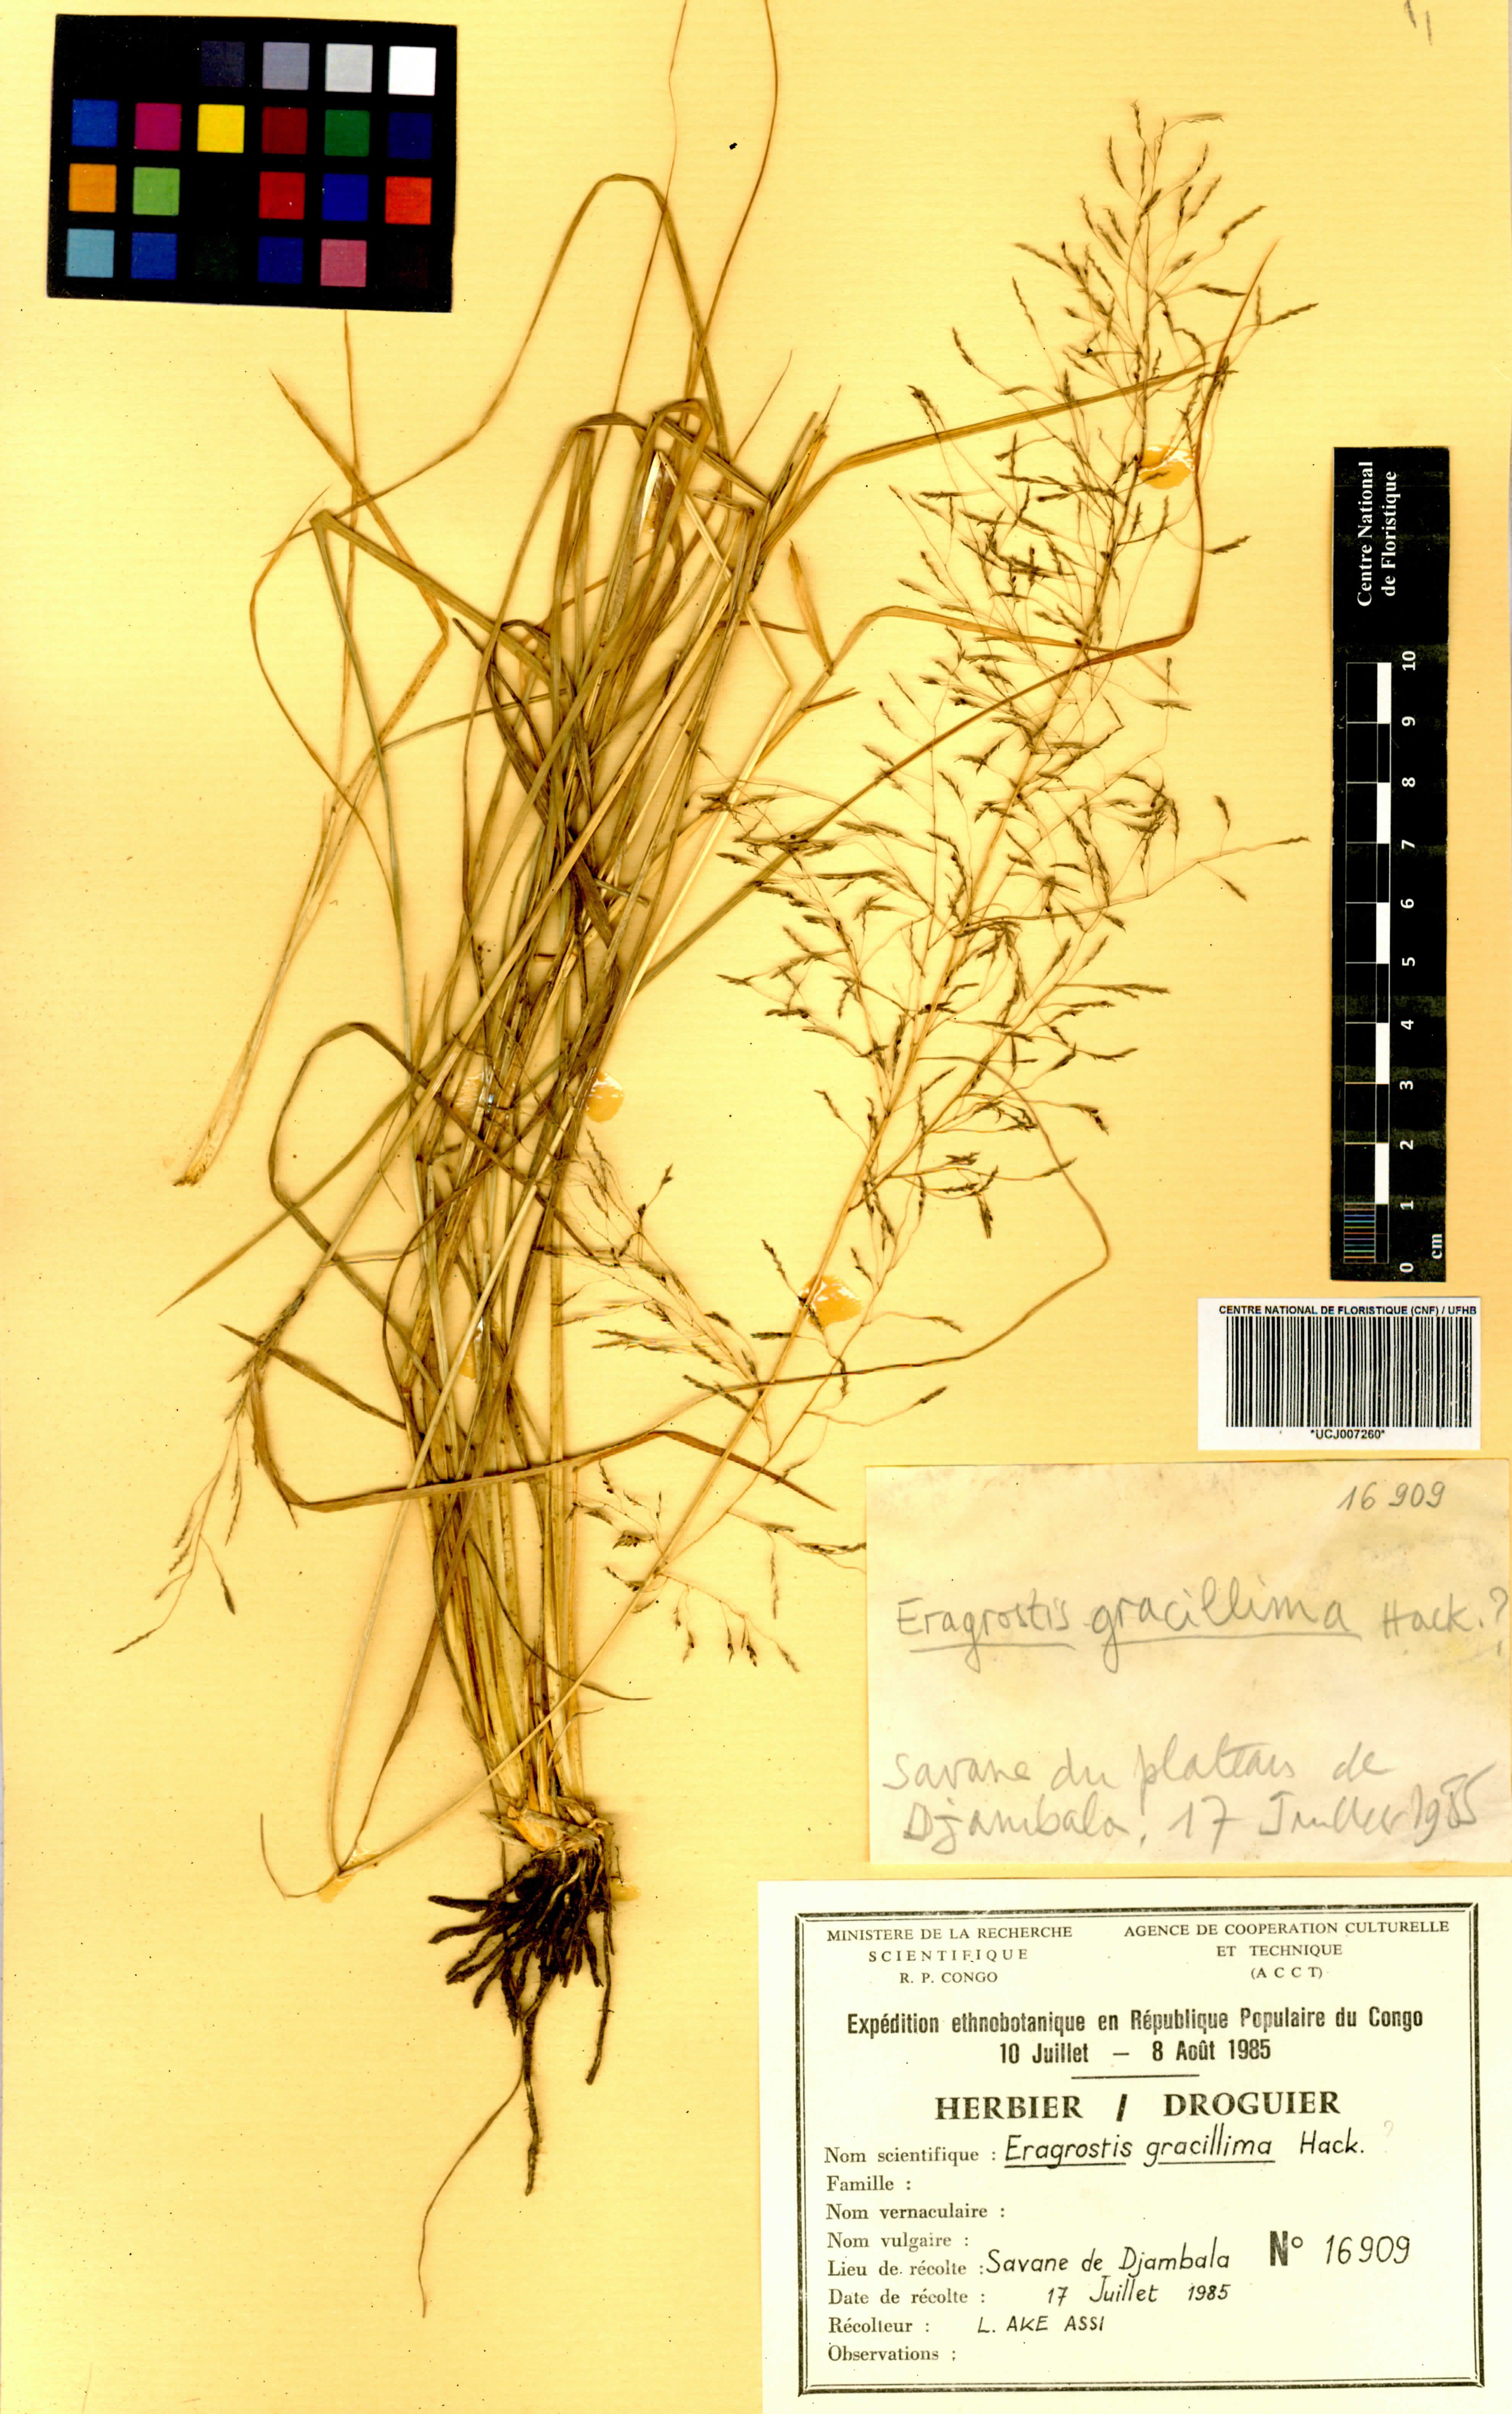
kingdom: Plantae
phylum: Tracheophyta
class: Liliopsida
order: Poales
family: Poaceae
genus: Eragrostis
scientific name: Eragrostis pilosa
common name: Indian lovegrass
